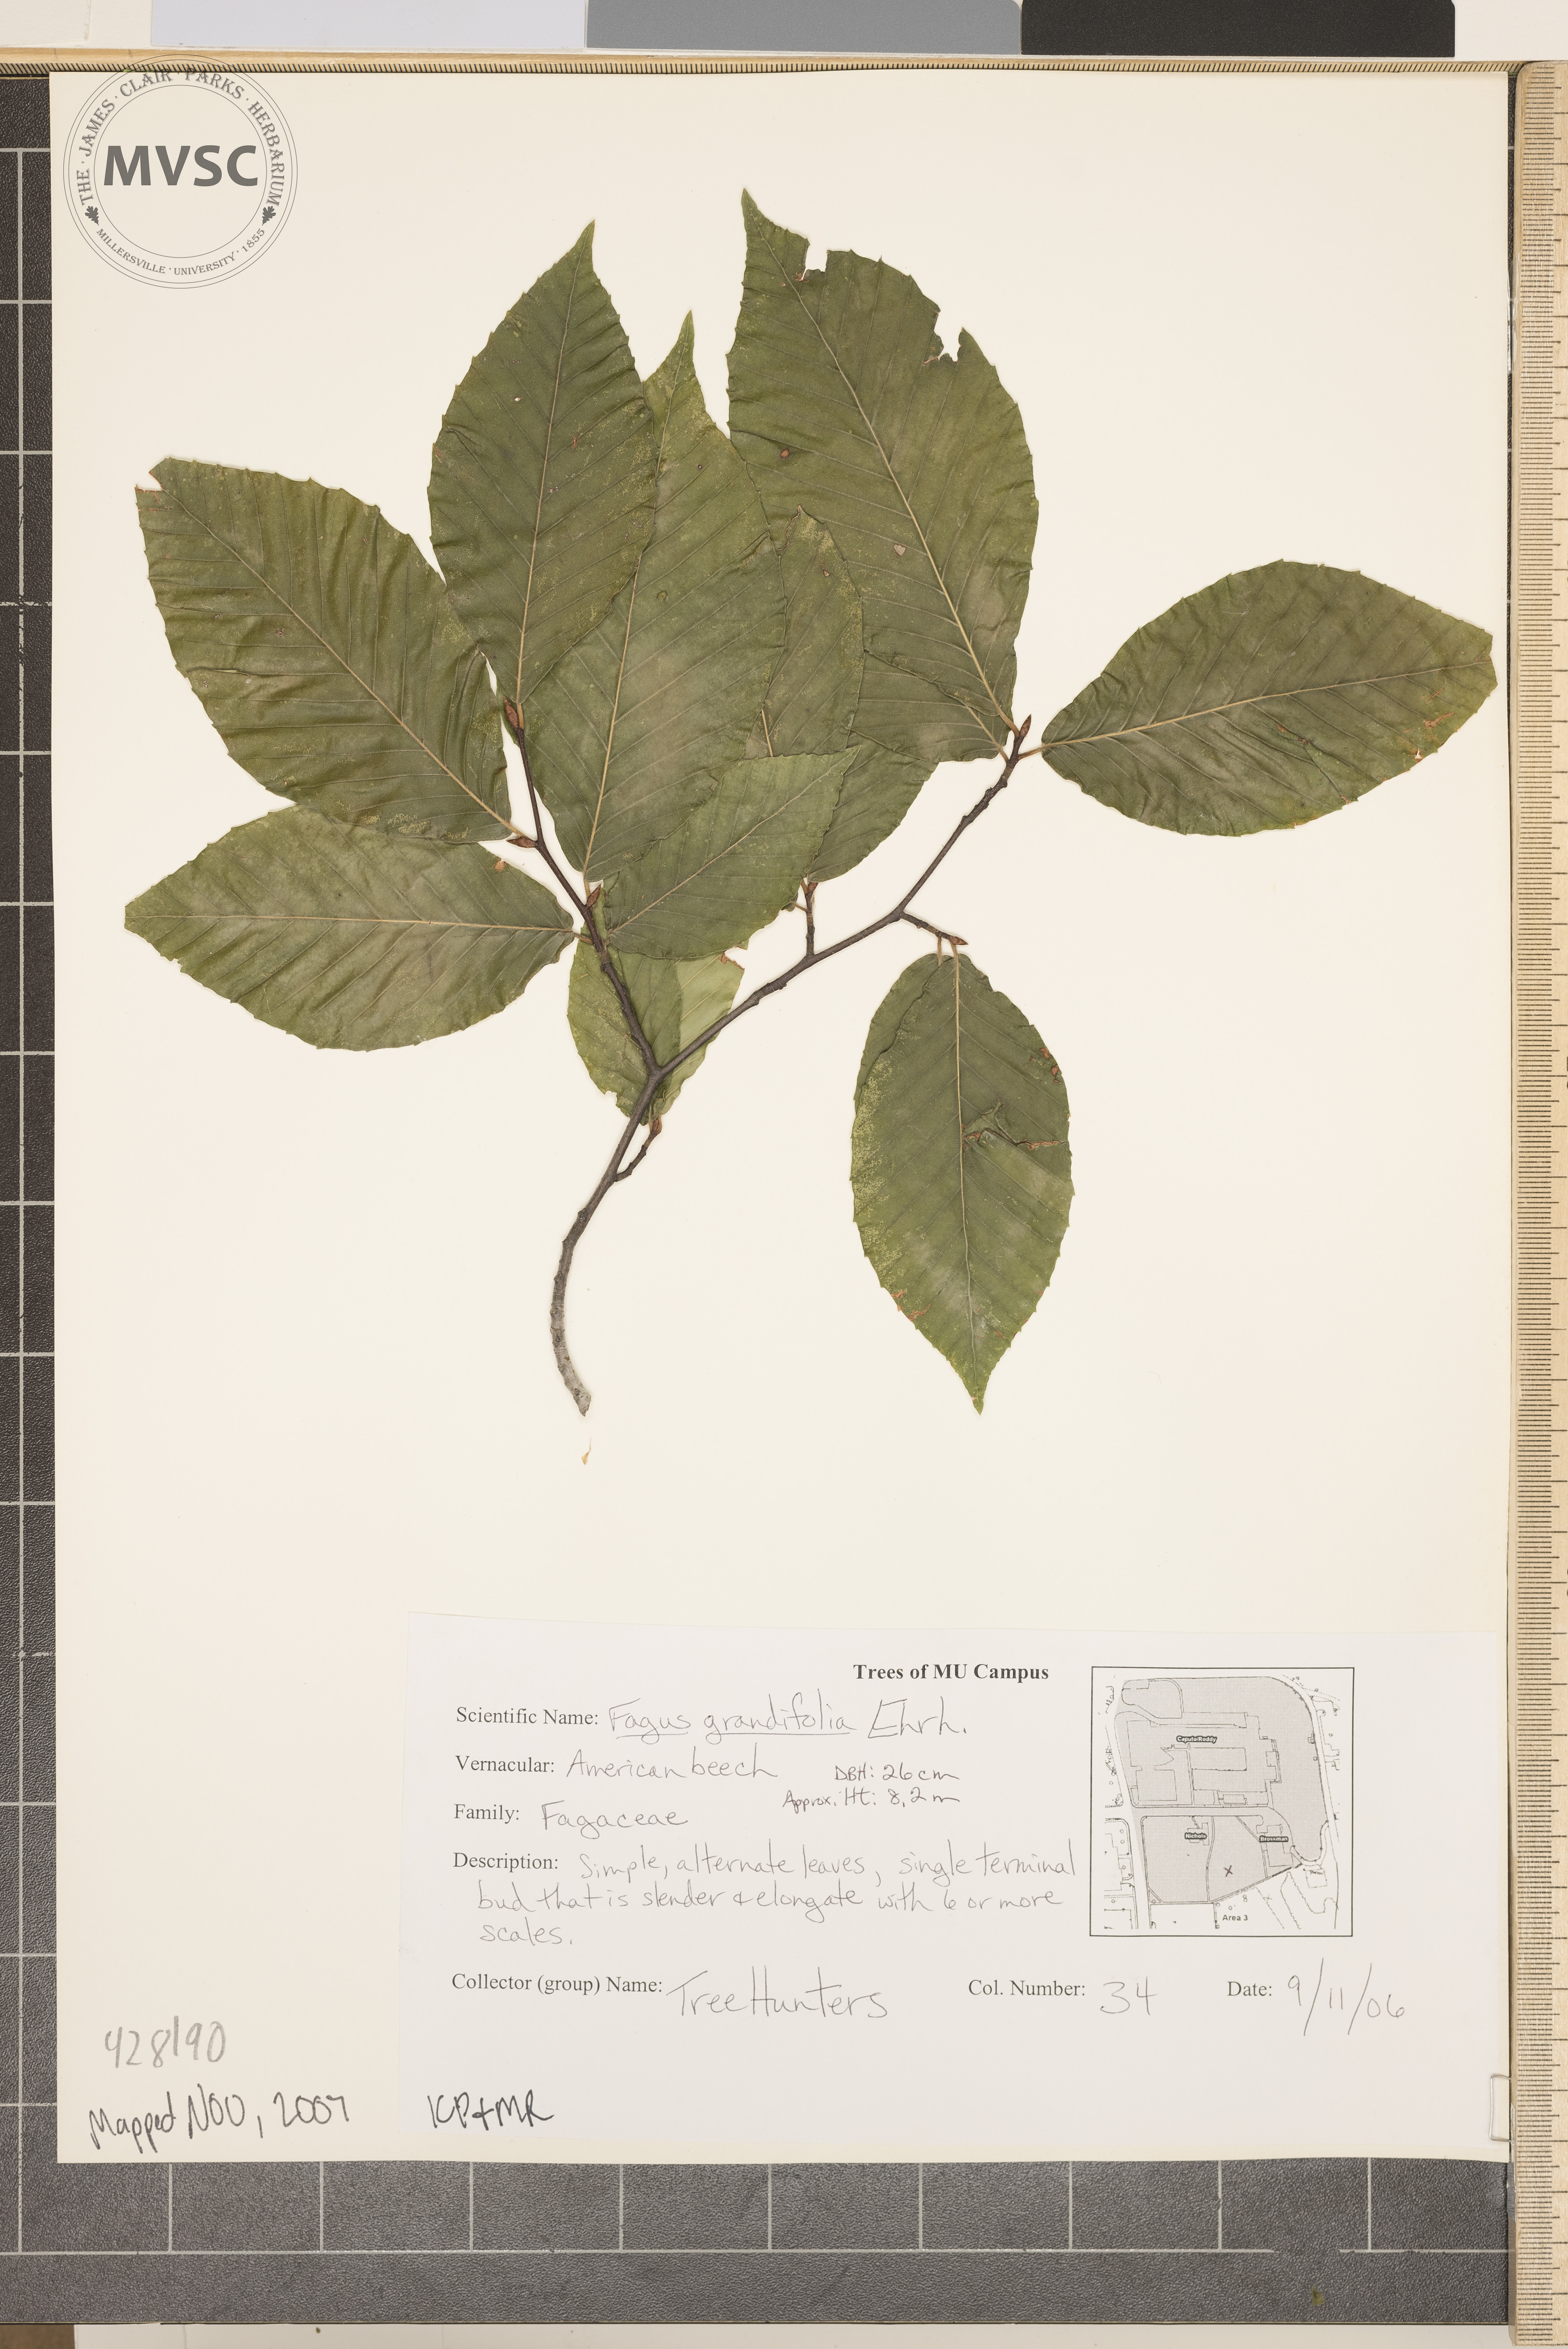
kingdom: Plantae
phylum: Tracheophyta
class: Magnoliopsida
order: Fagales
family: Fagaceae
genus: Fagus
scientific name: Fagus grandifolia
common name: American beech
